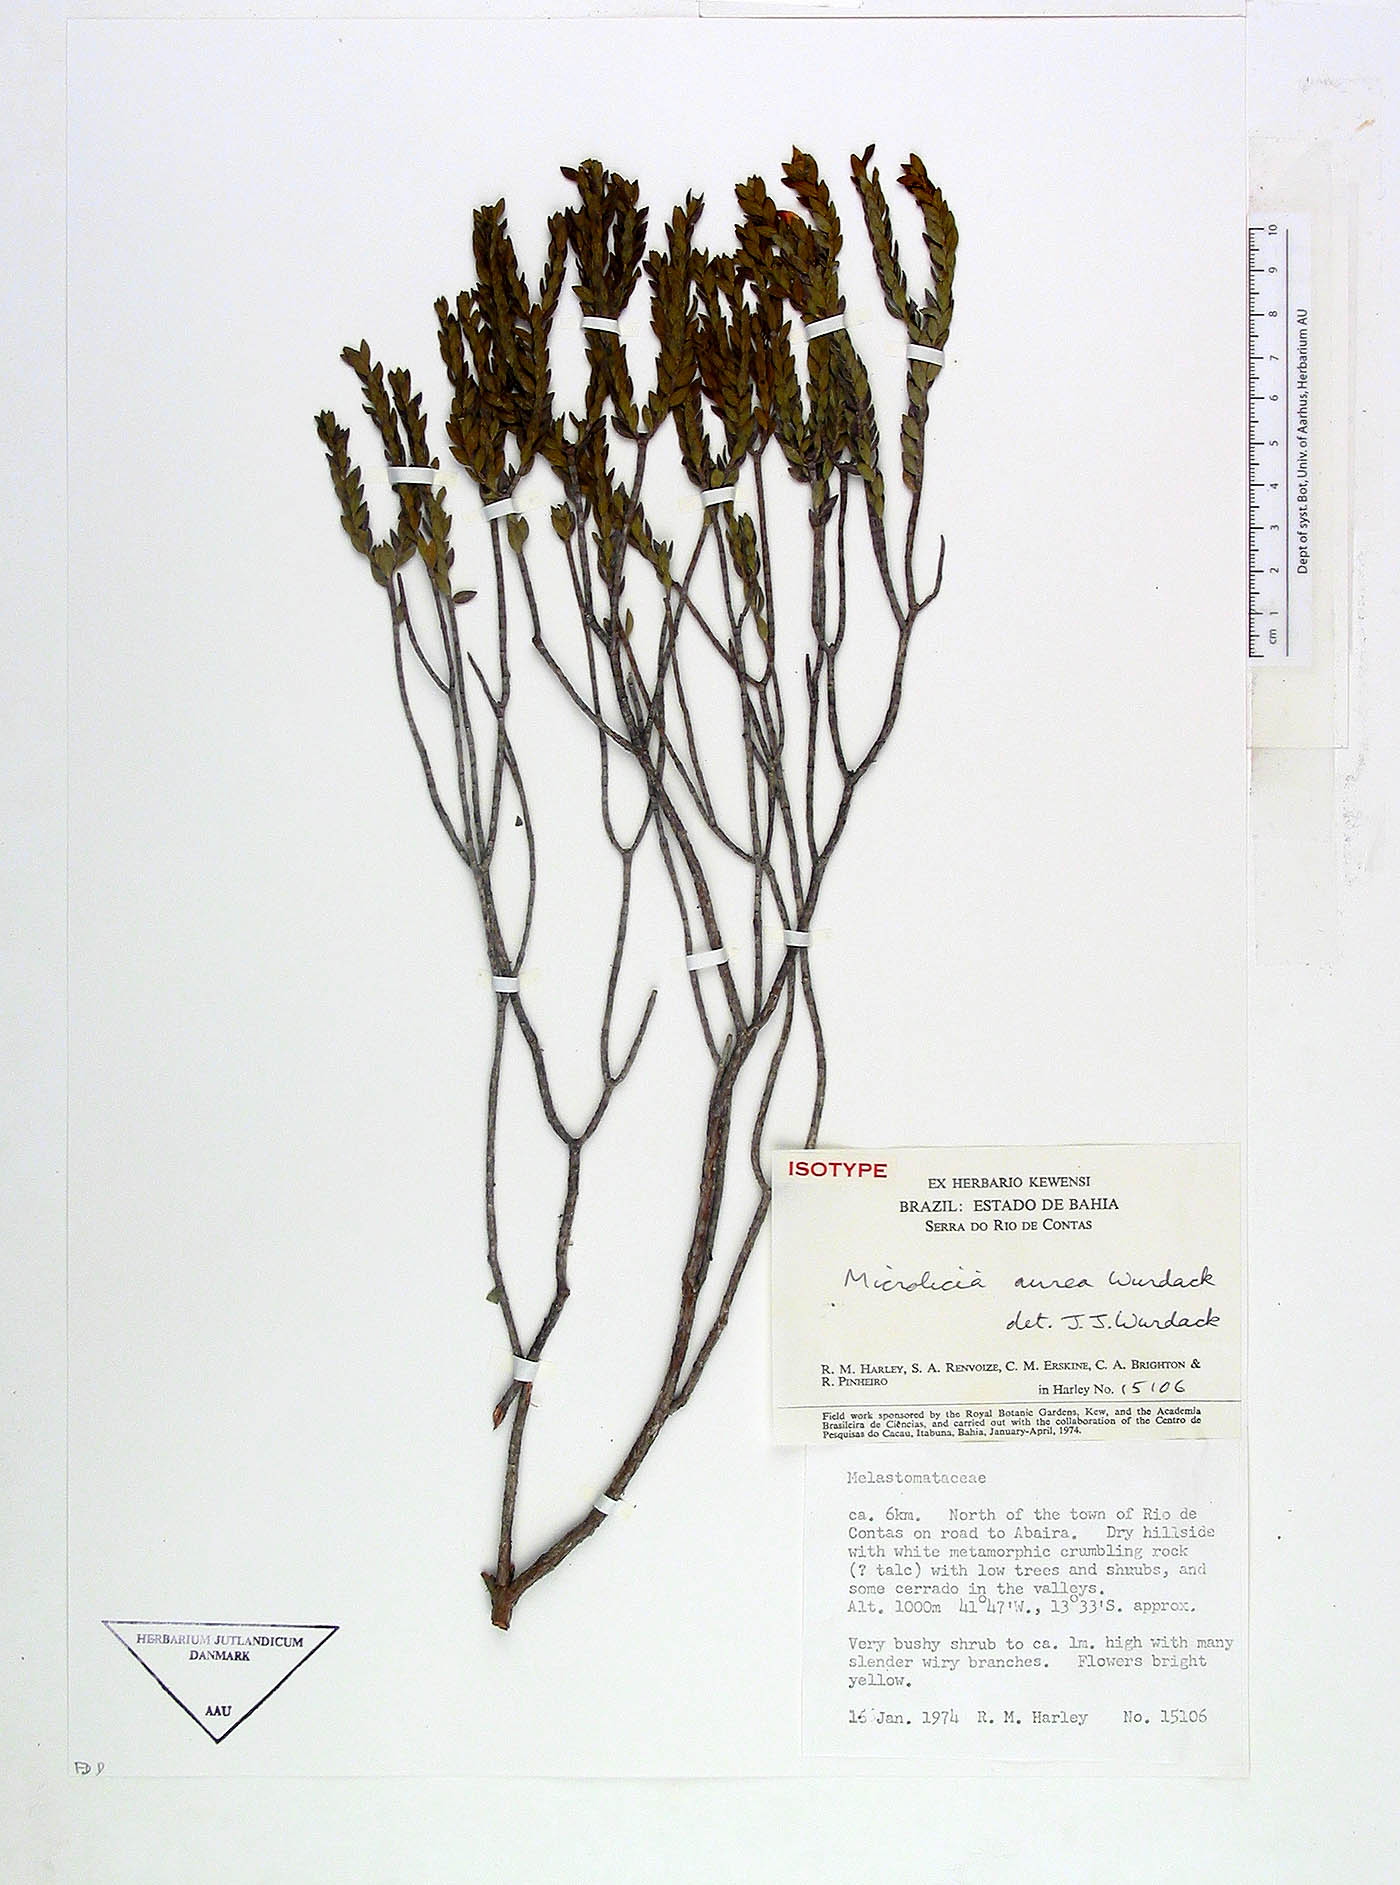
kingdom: Plantae
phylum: Tracheophyta
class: Magnoliopsida
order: Myrtales
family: Melastomataceae
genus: Microlicia
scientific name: Microlicia aurea
